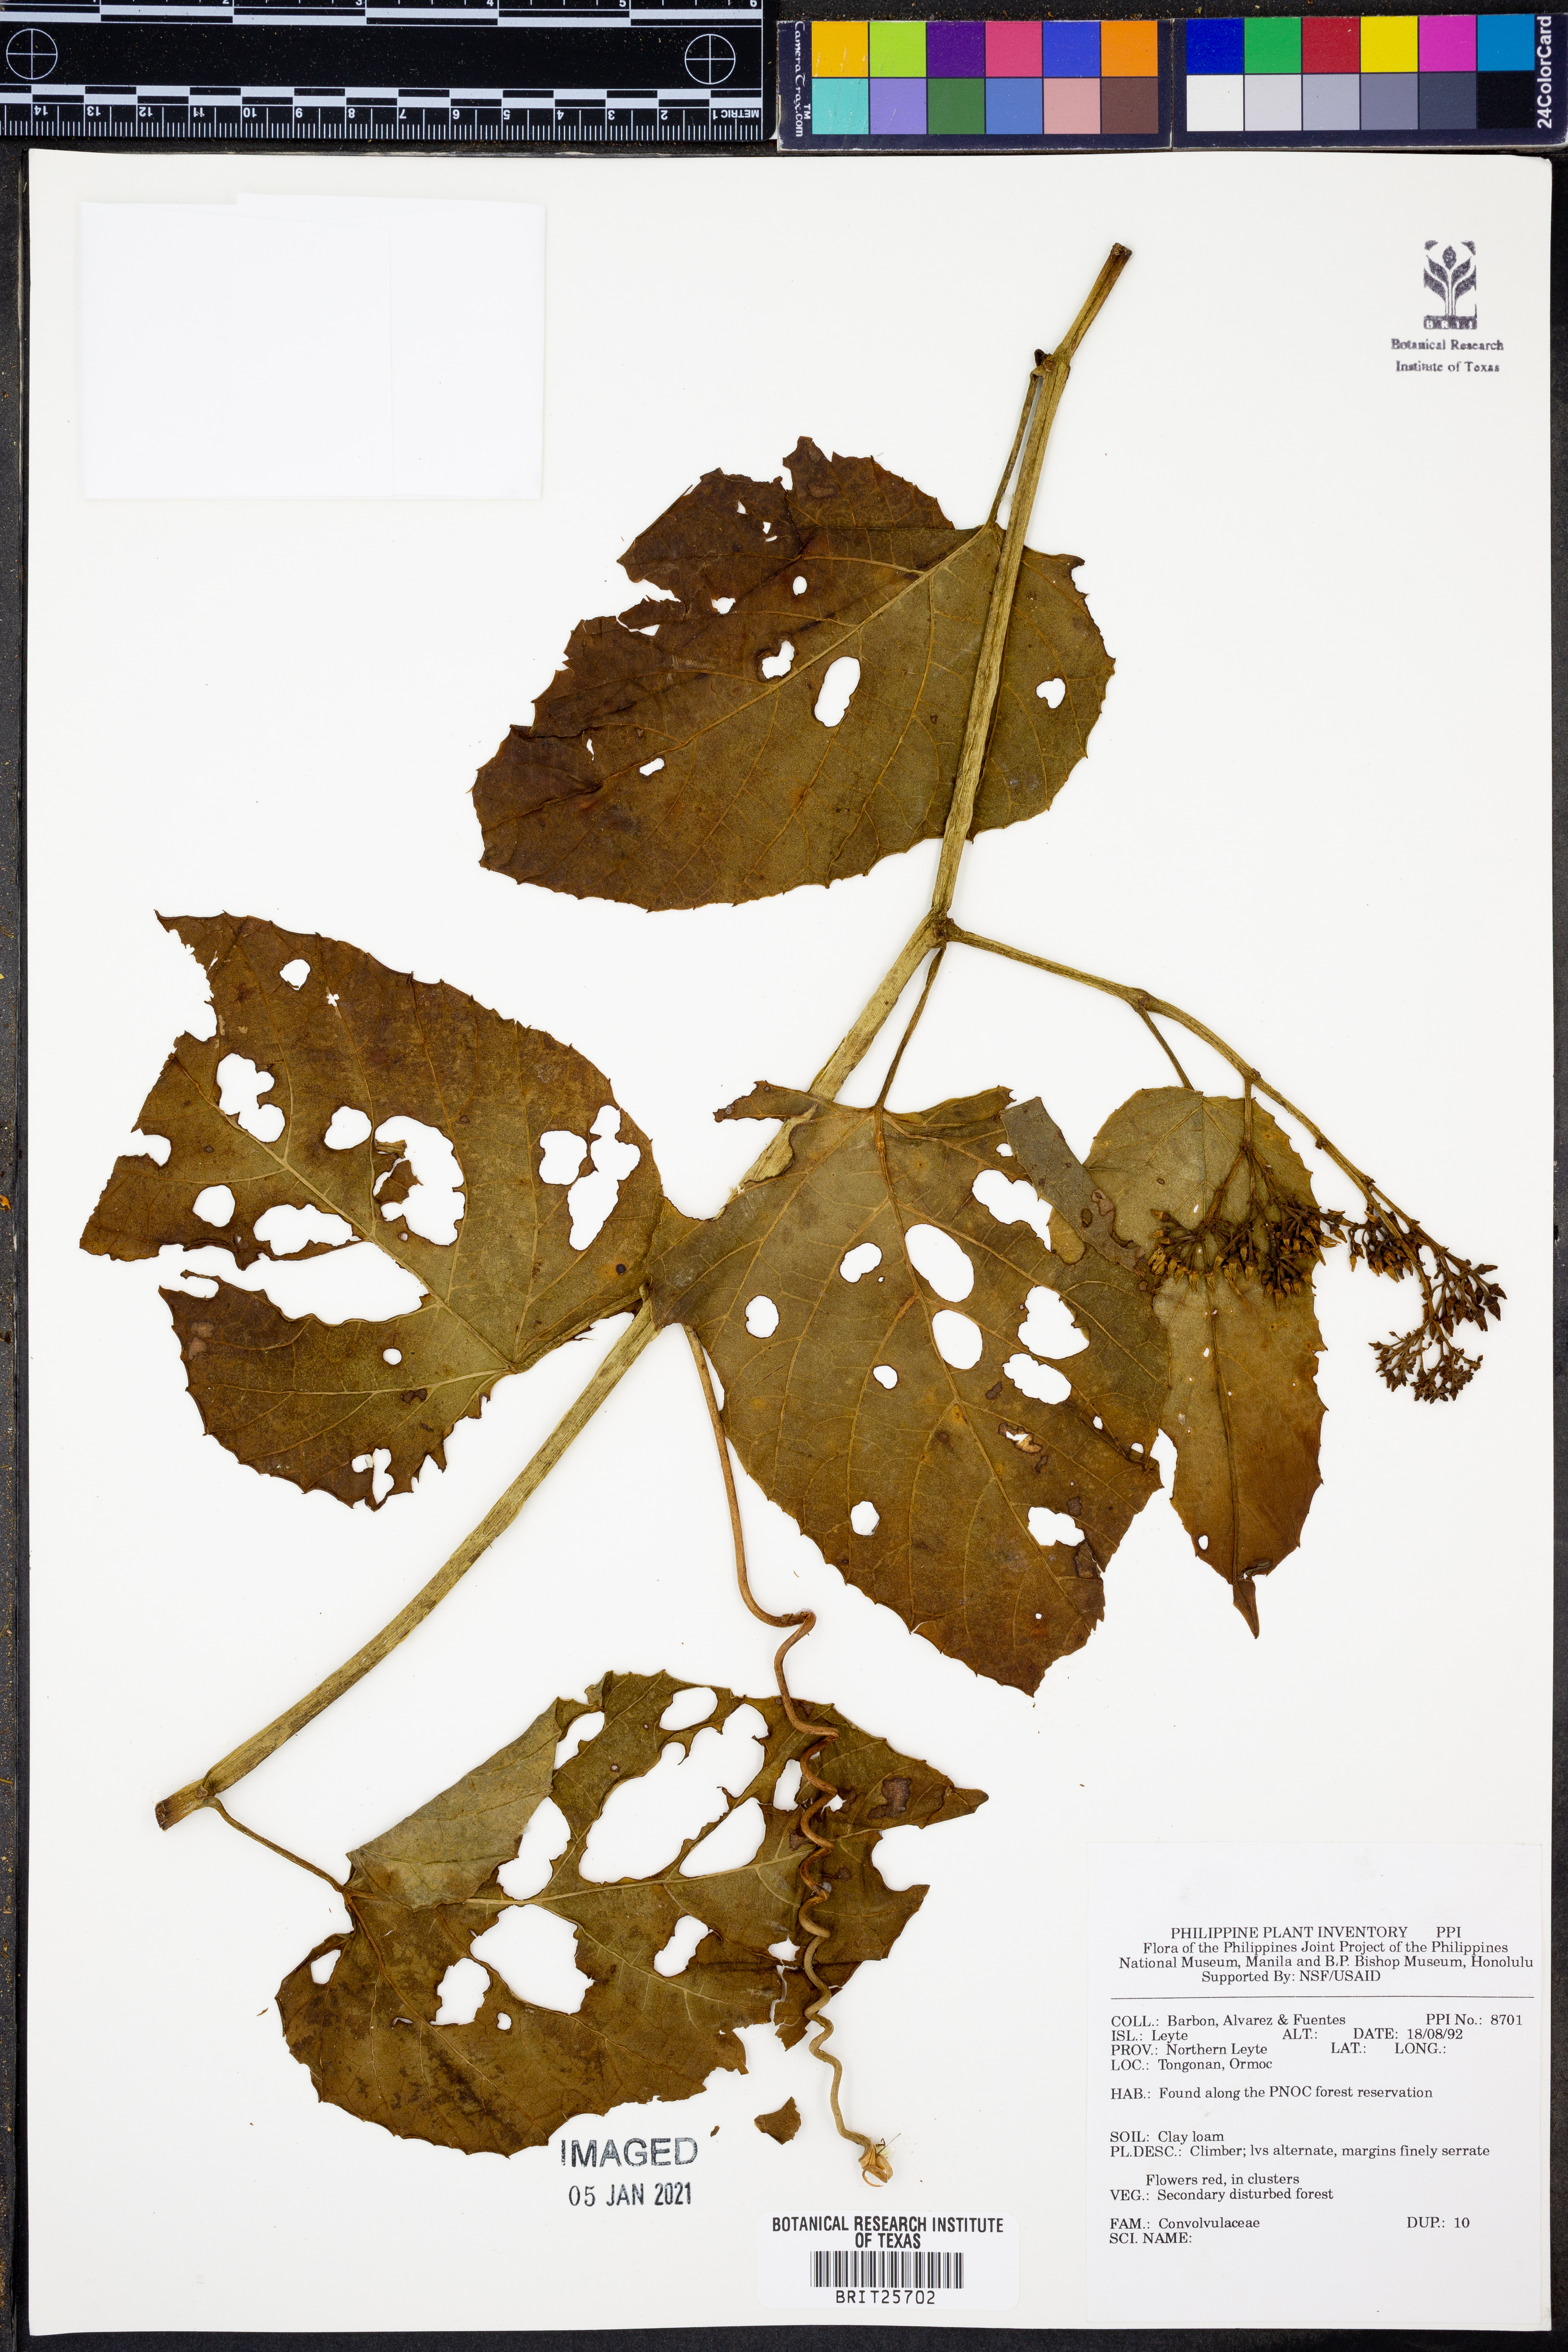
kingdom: Plantae
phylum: Tracheophyta
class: Magnoliopsida
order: Solanales
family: Convolvulaceae
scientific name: Convolvulaceae
